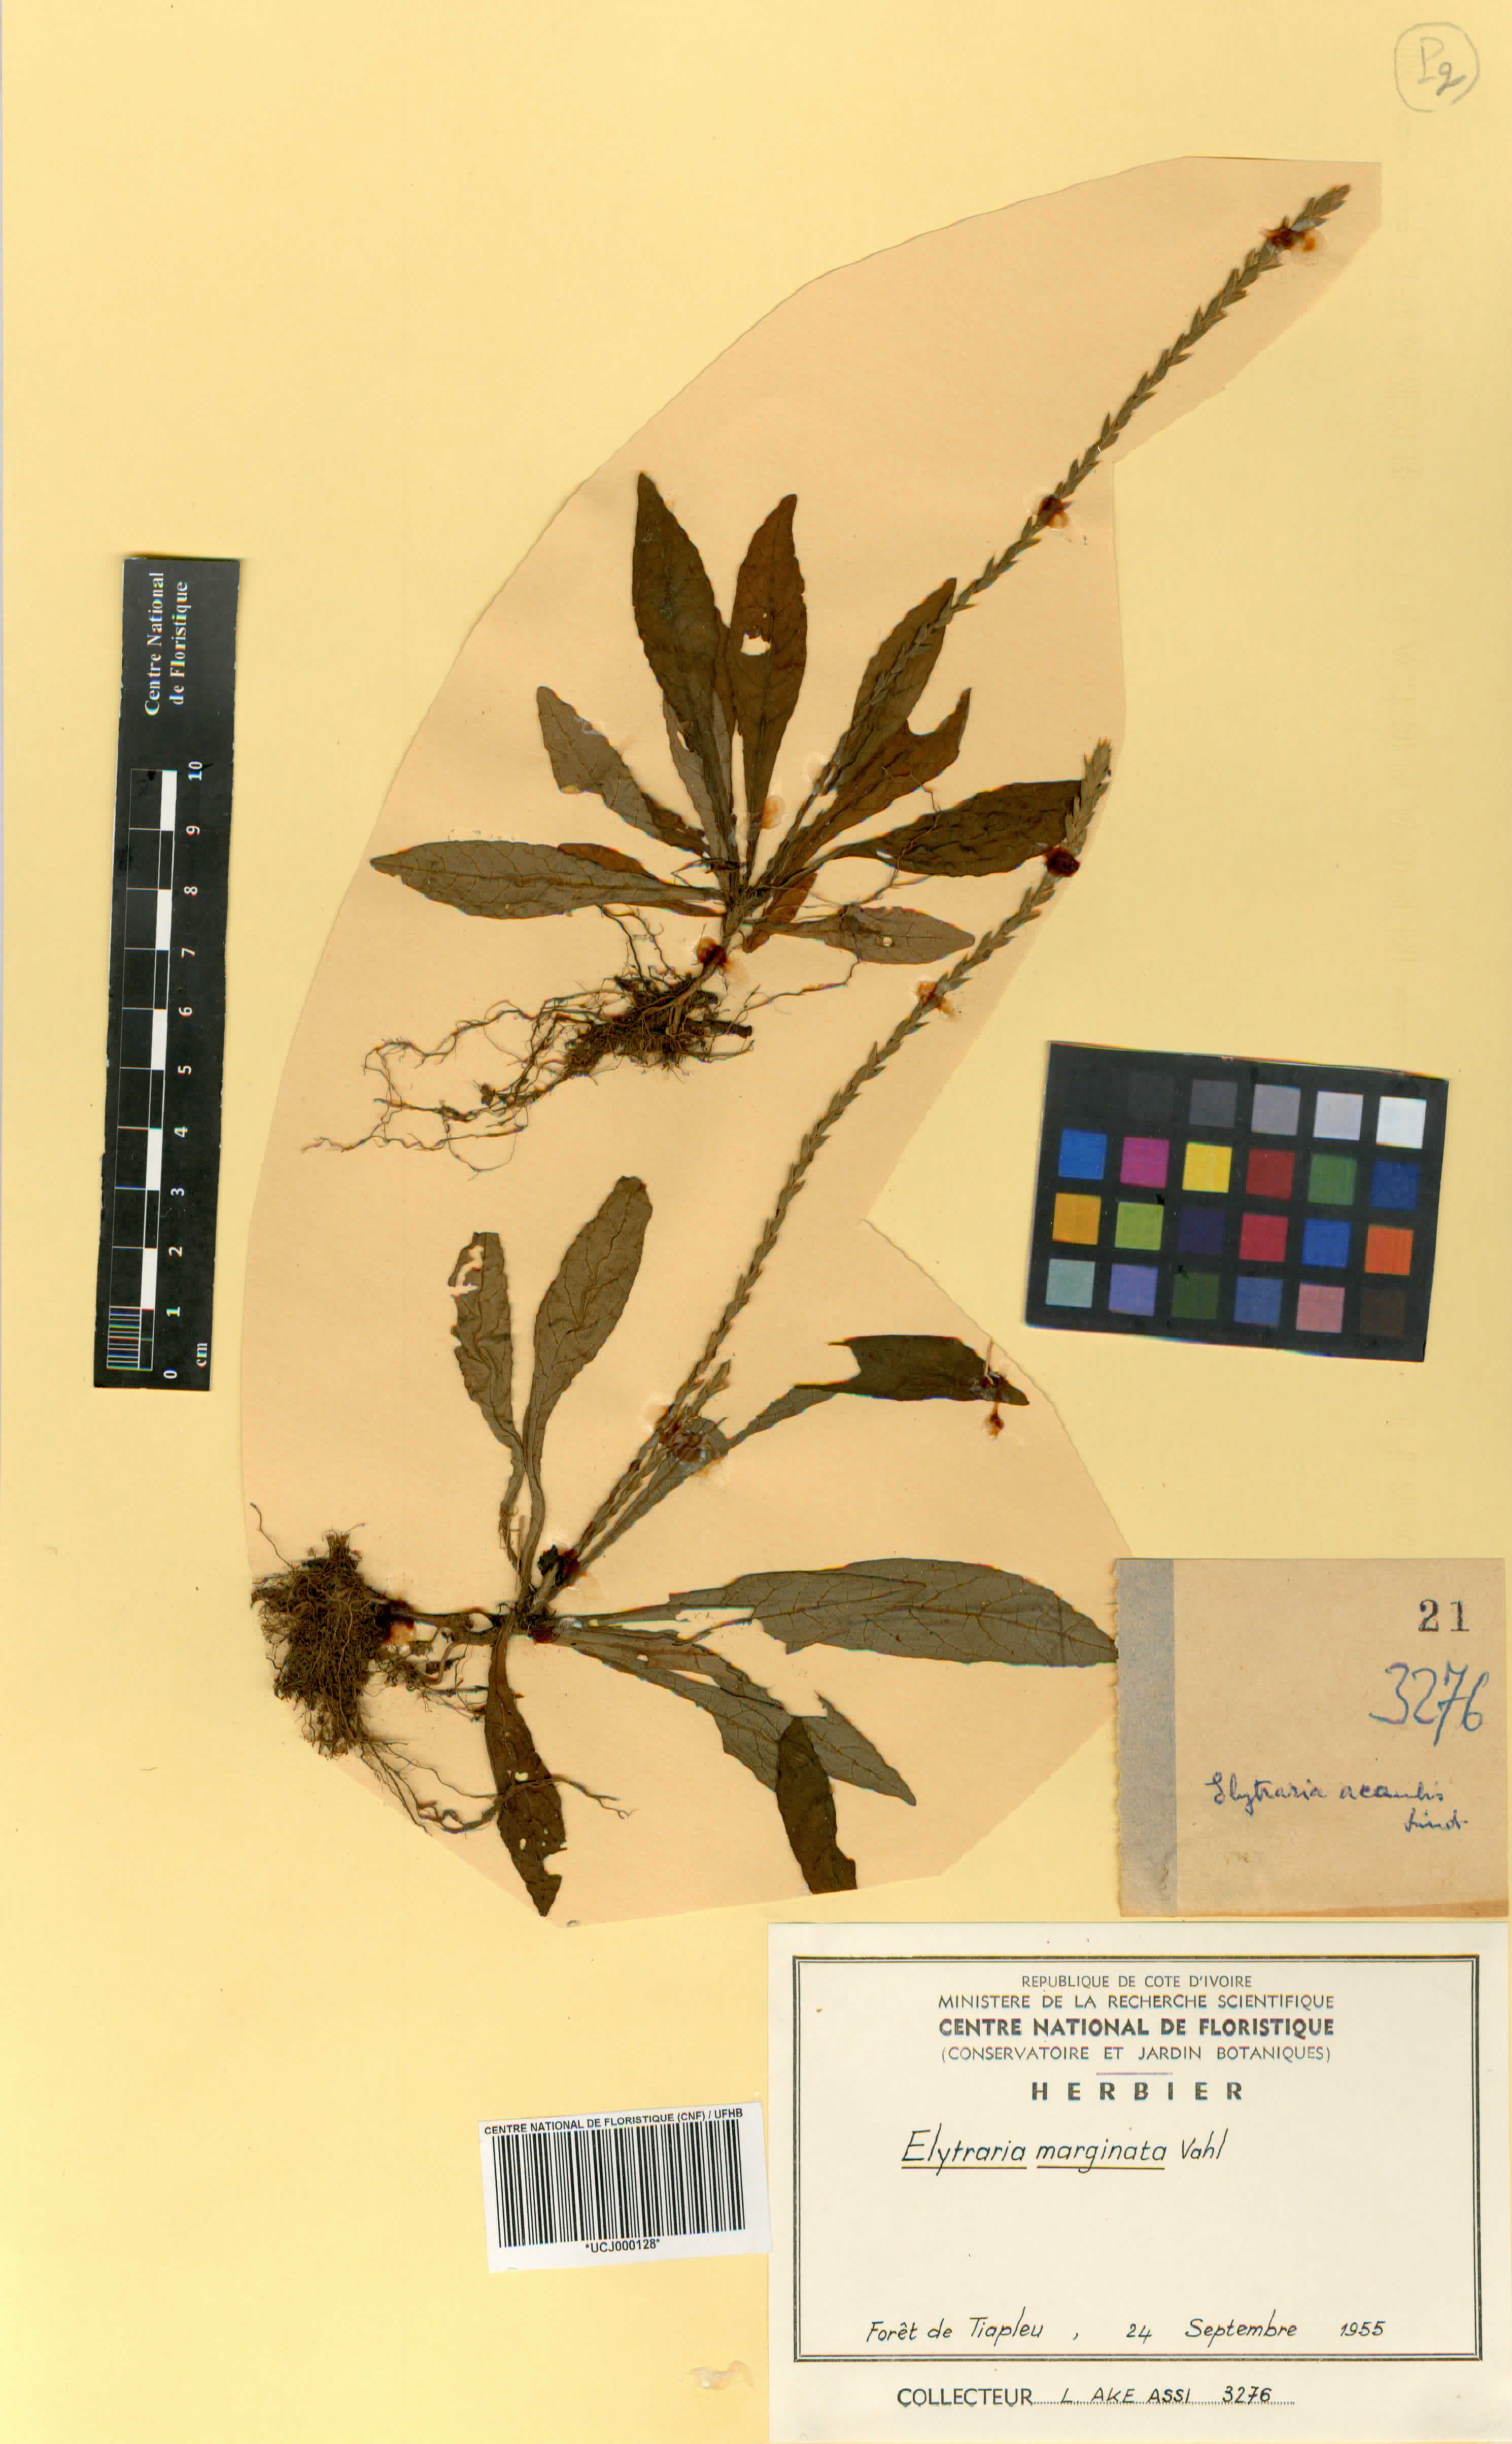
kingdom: Plantae
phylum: Tracheophyta
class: Magnoliopsida
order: Lamiales
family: Acanthaceae
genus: Elytraria
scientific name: Elytraria marginata
